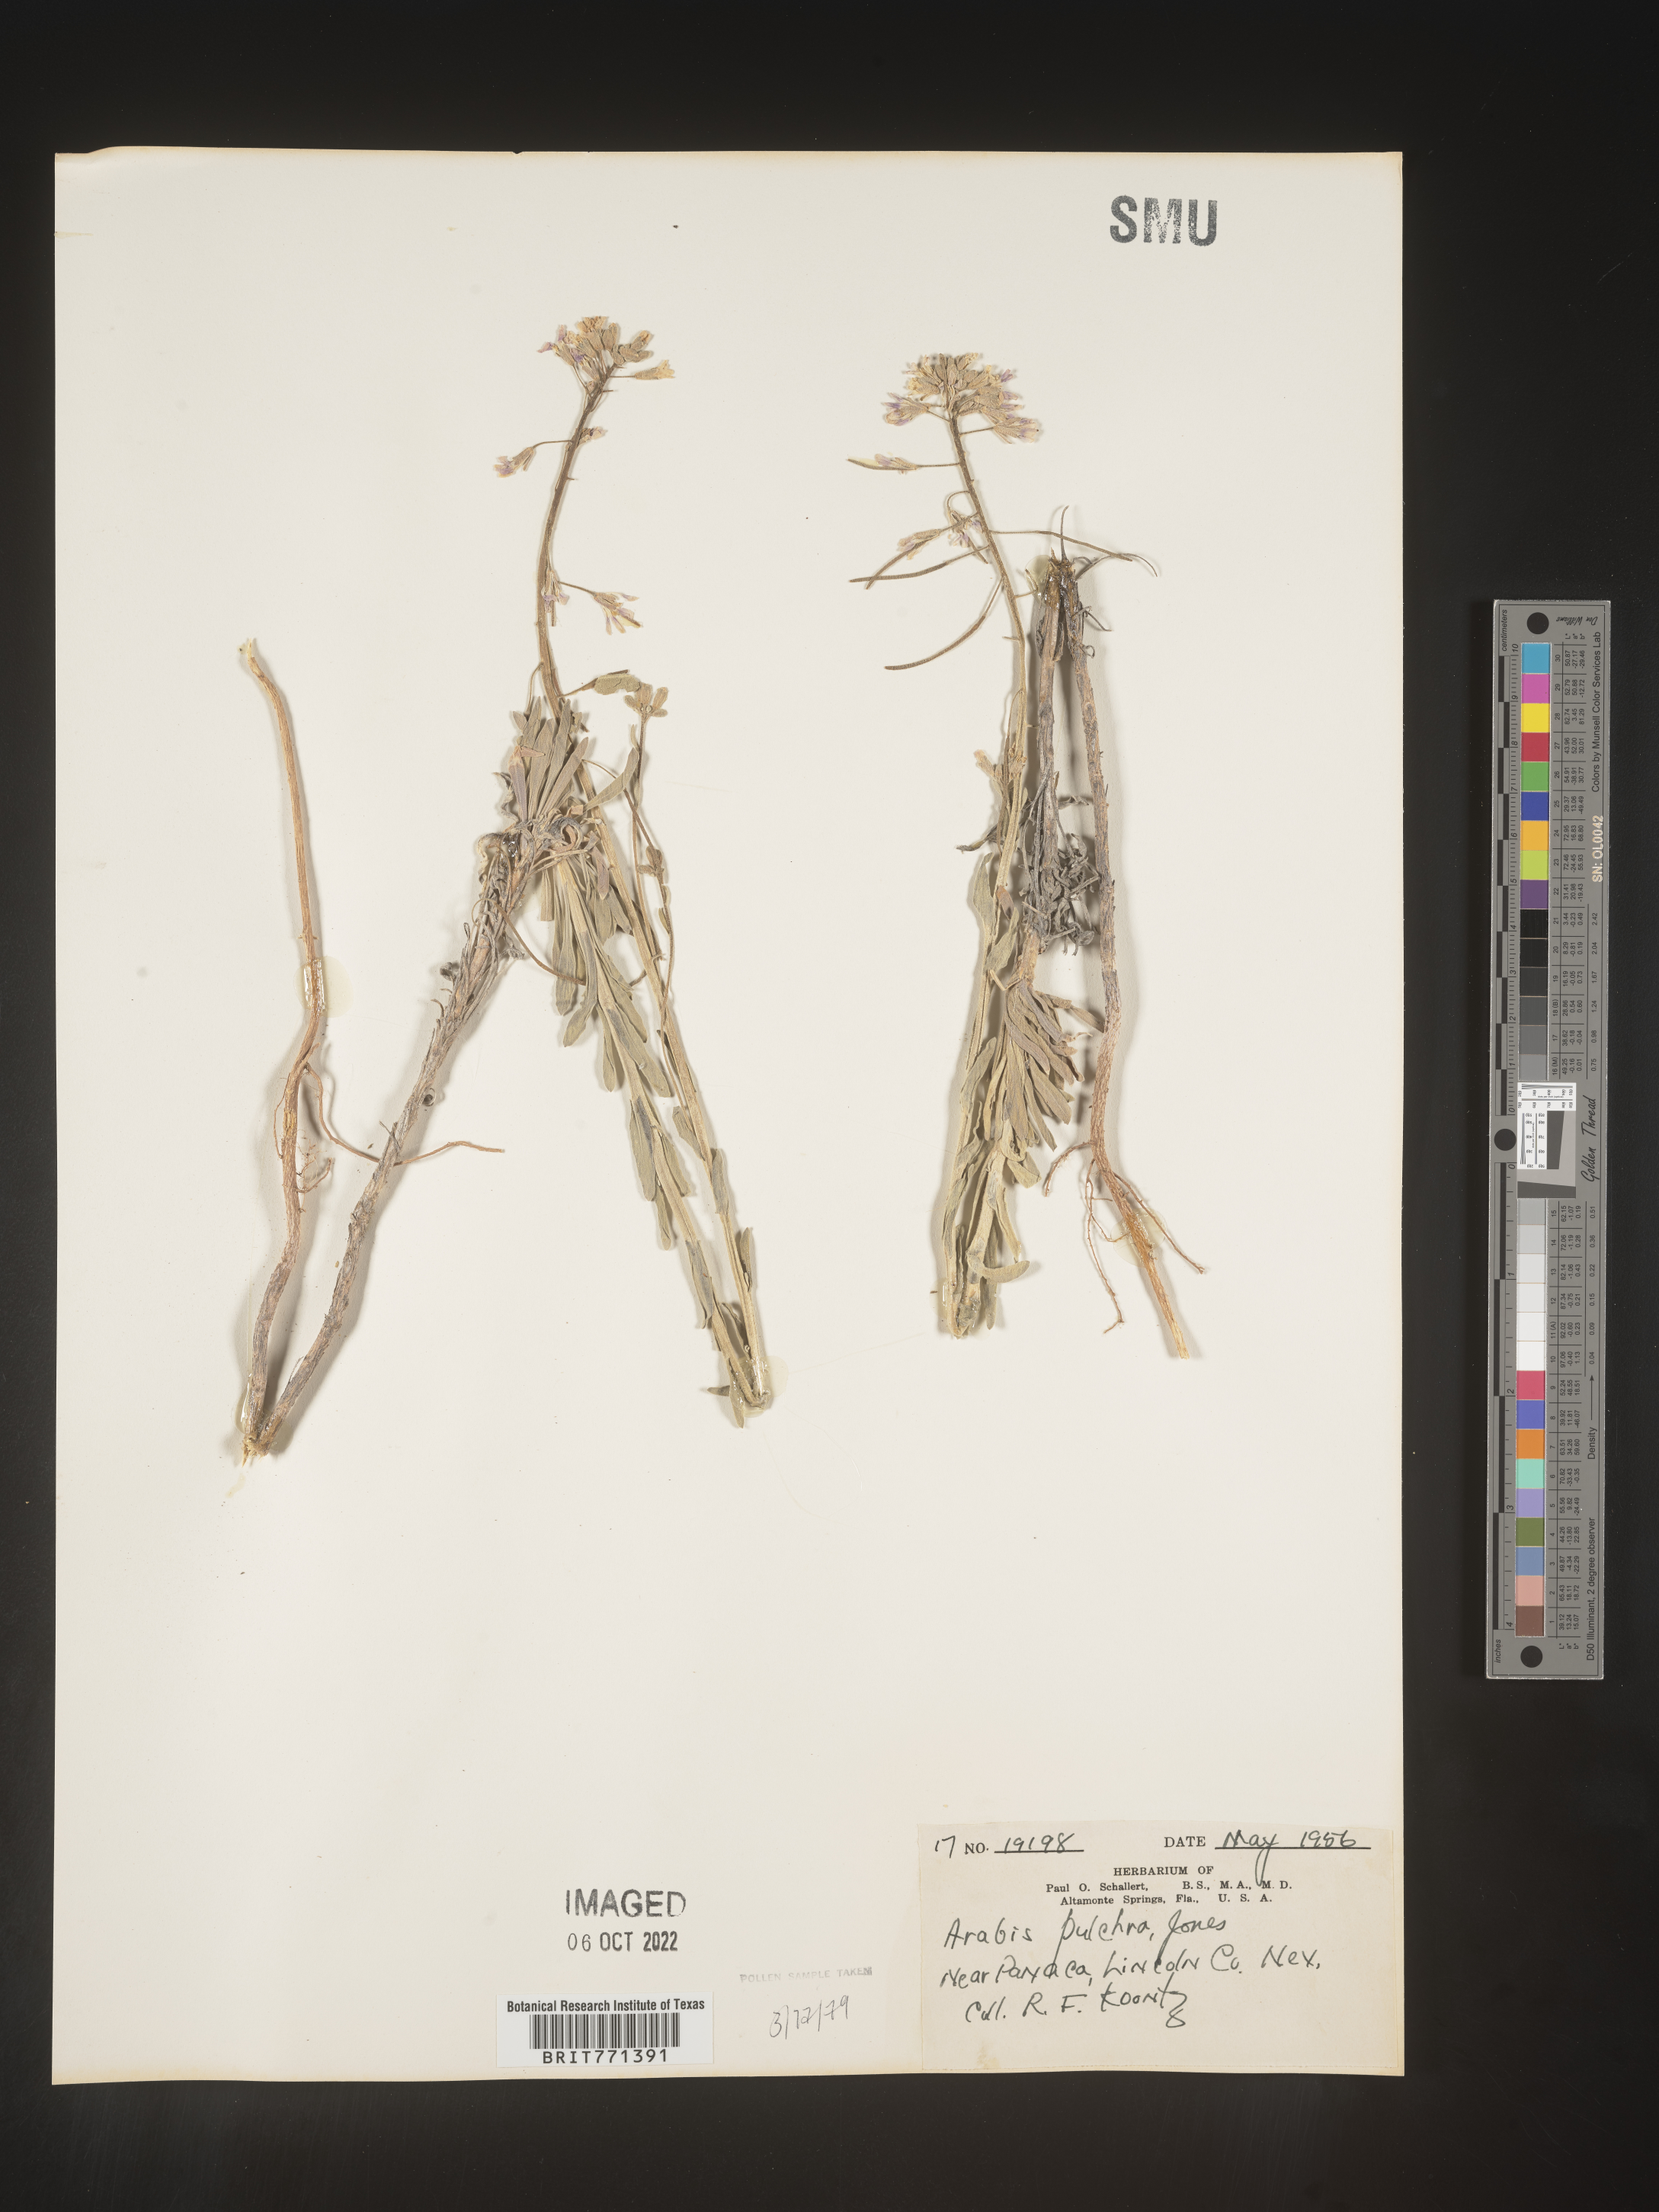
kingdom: Plantae
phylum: Tracheophyta
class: Magnoliopsida
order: Brassicales
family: Brassicaceae
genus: Arabis
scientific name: Arabis
